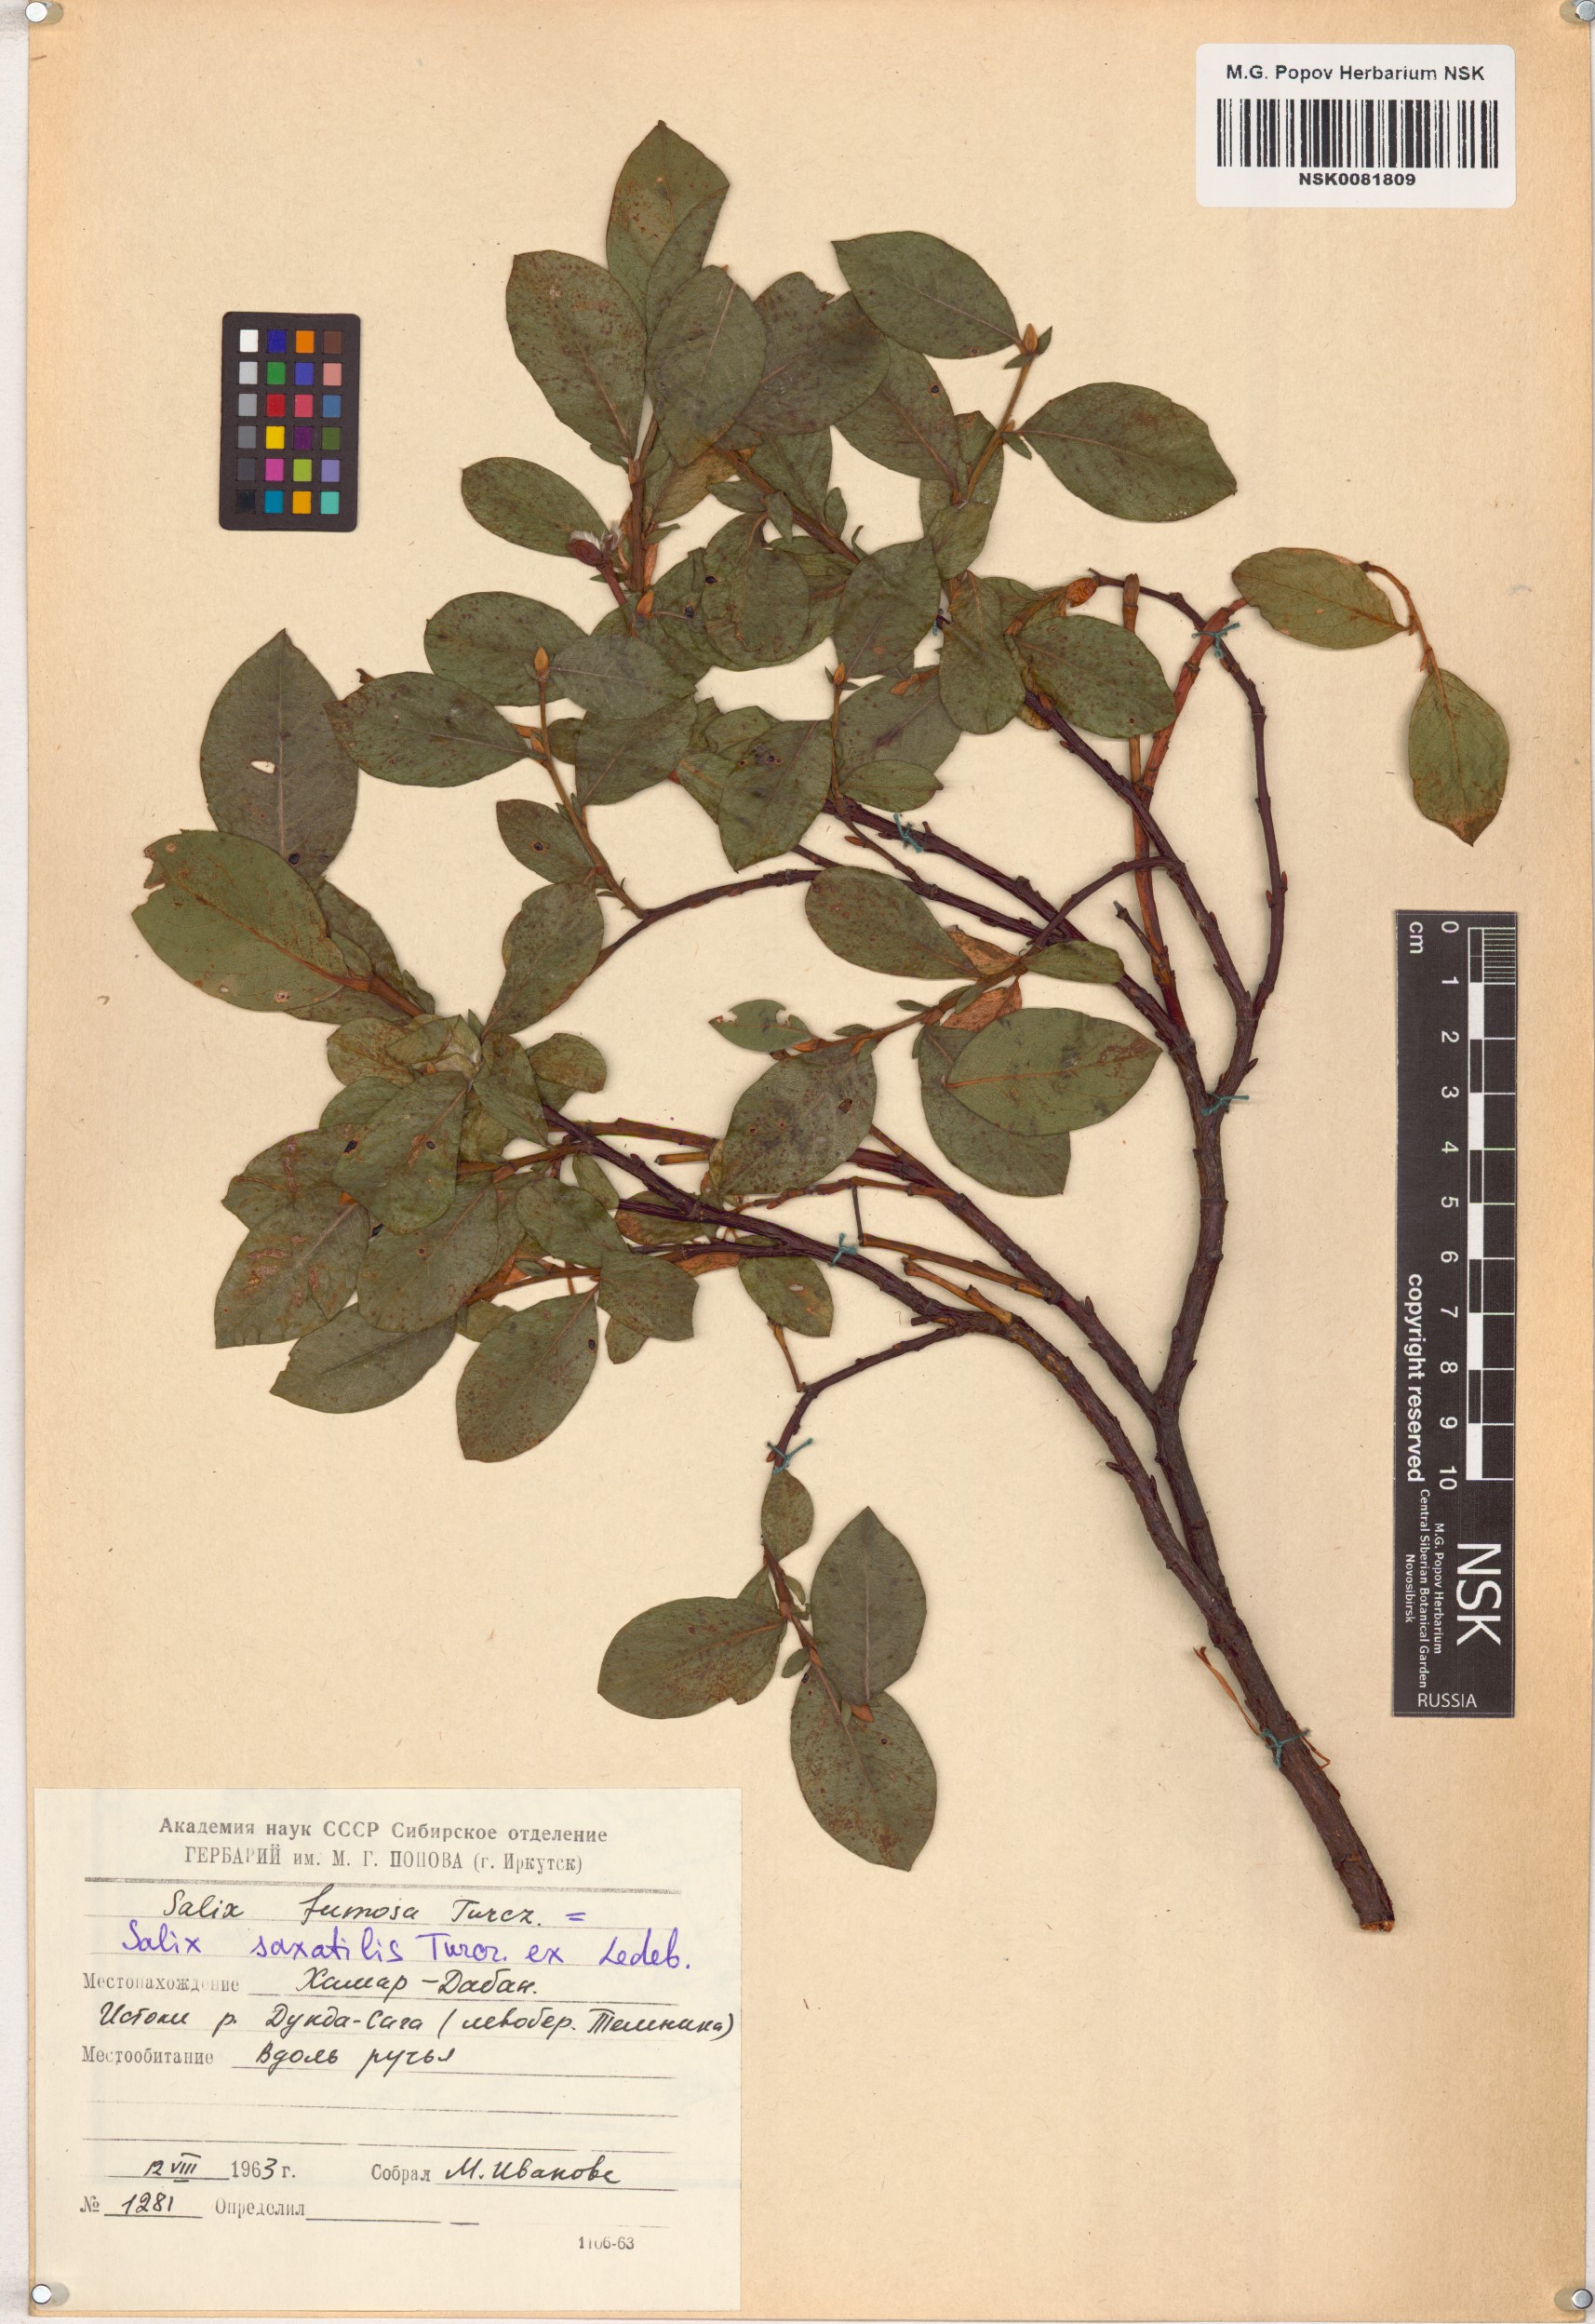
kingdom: Plantae
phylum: Tracheophyta
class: Magnoliopsida
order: Malpighiales
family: Salicaceae
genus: Salix
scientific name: Salix saxatilis
